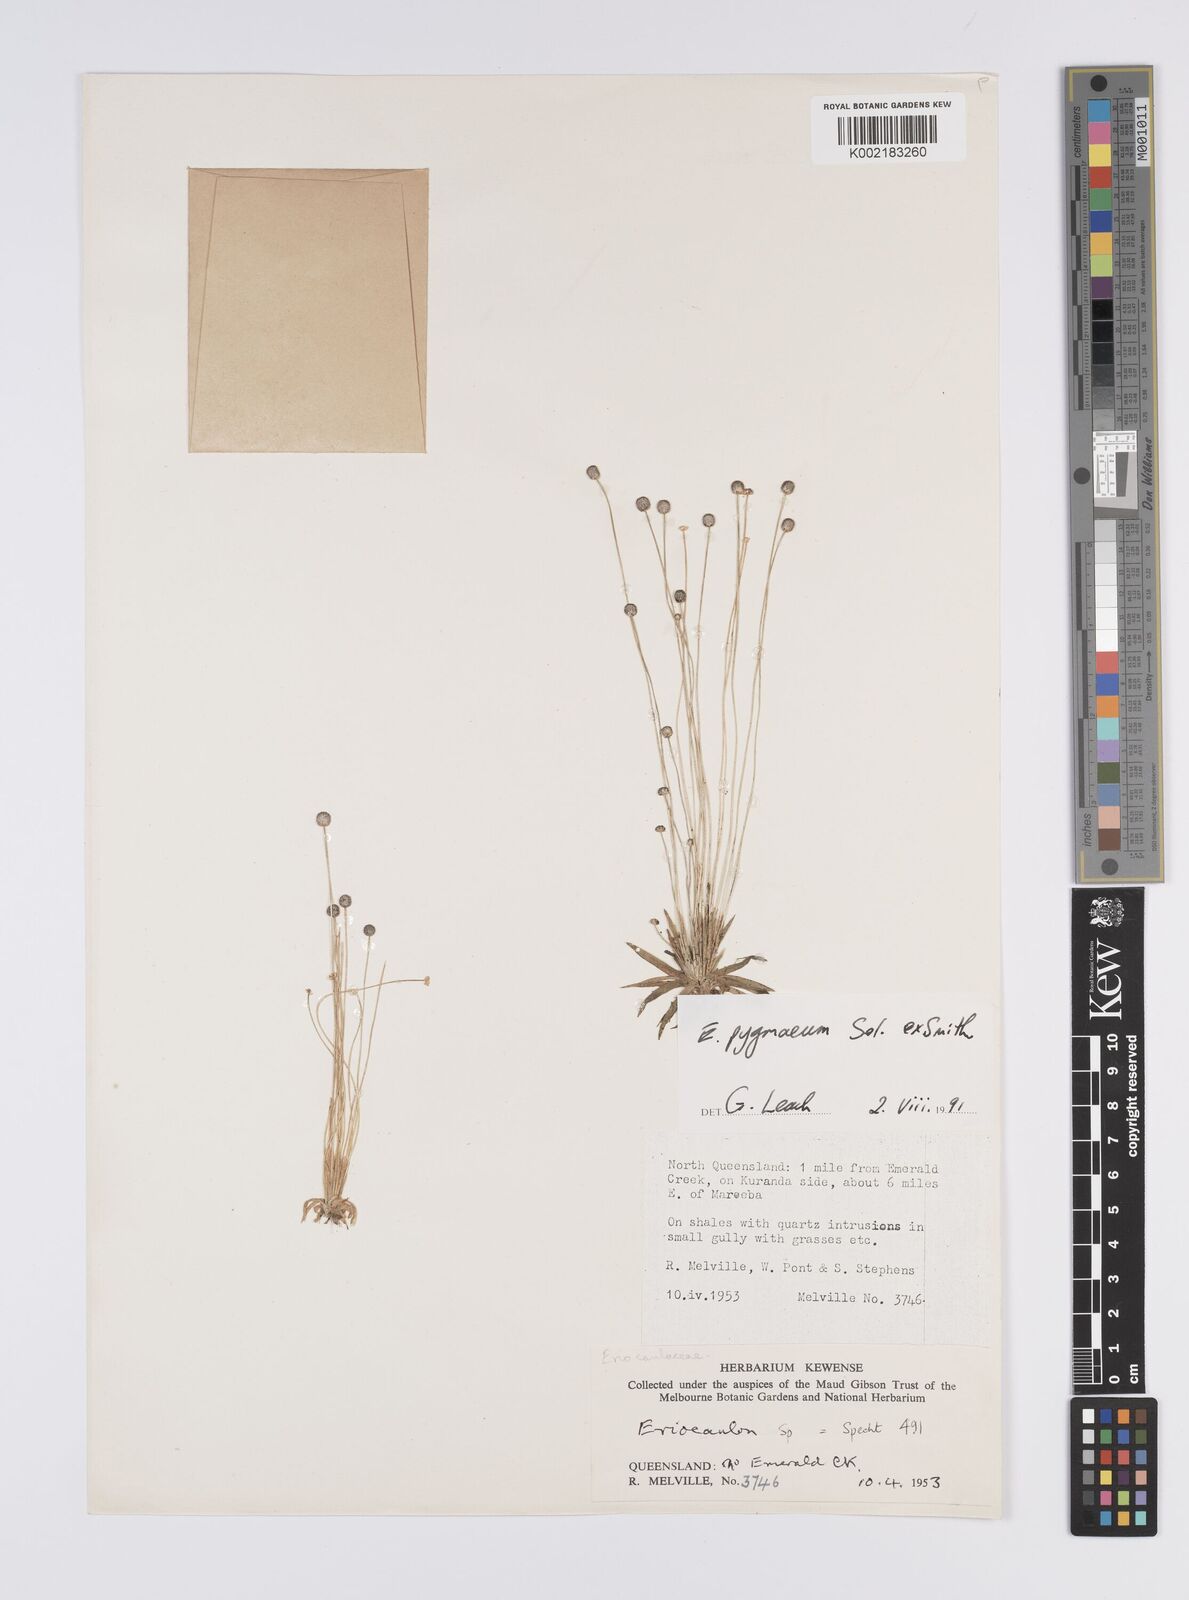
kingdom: Plantae
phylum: Tracheophyta
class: Liliopsida
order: Poales
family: Eriocaulaceae
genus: Paepalanthus
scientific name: Paepalanthus bifidus
